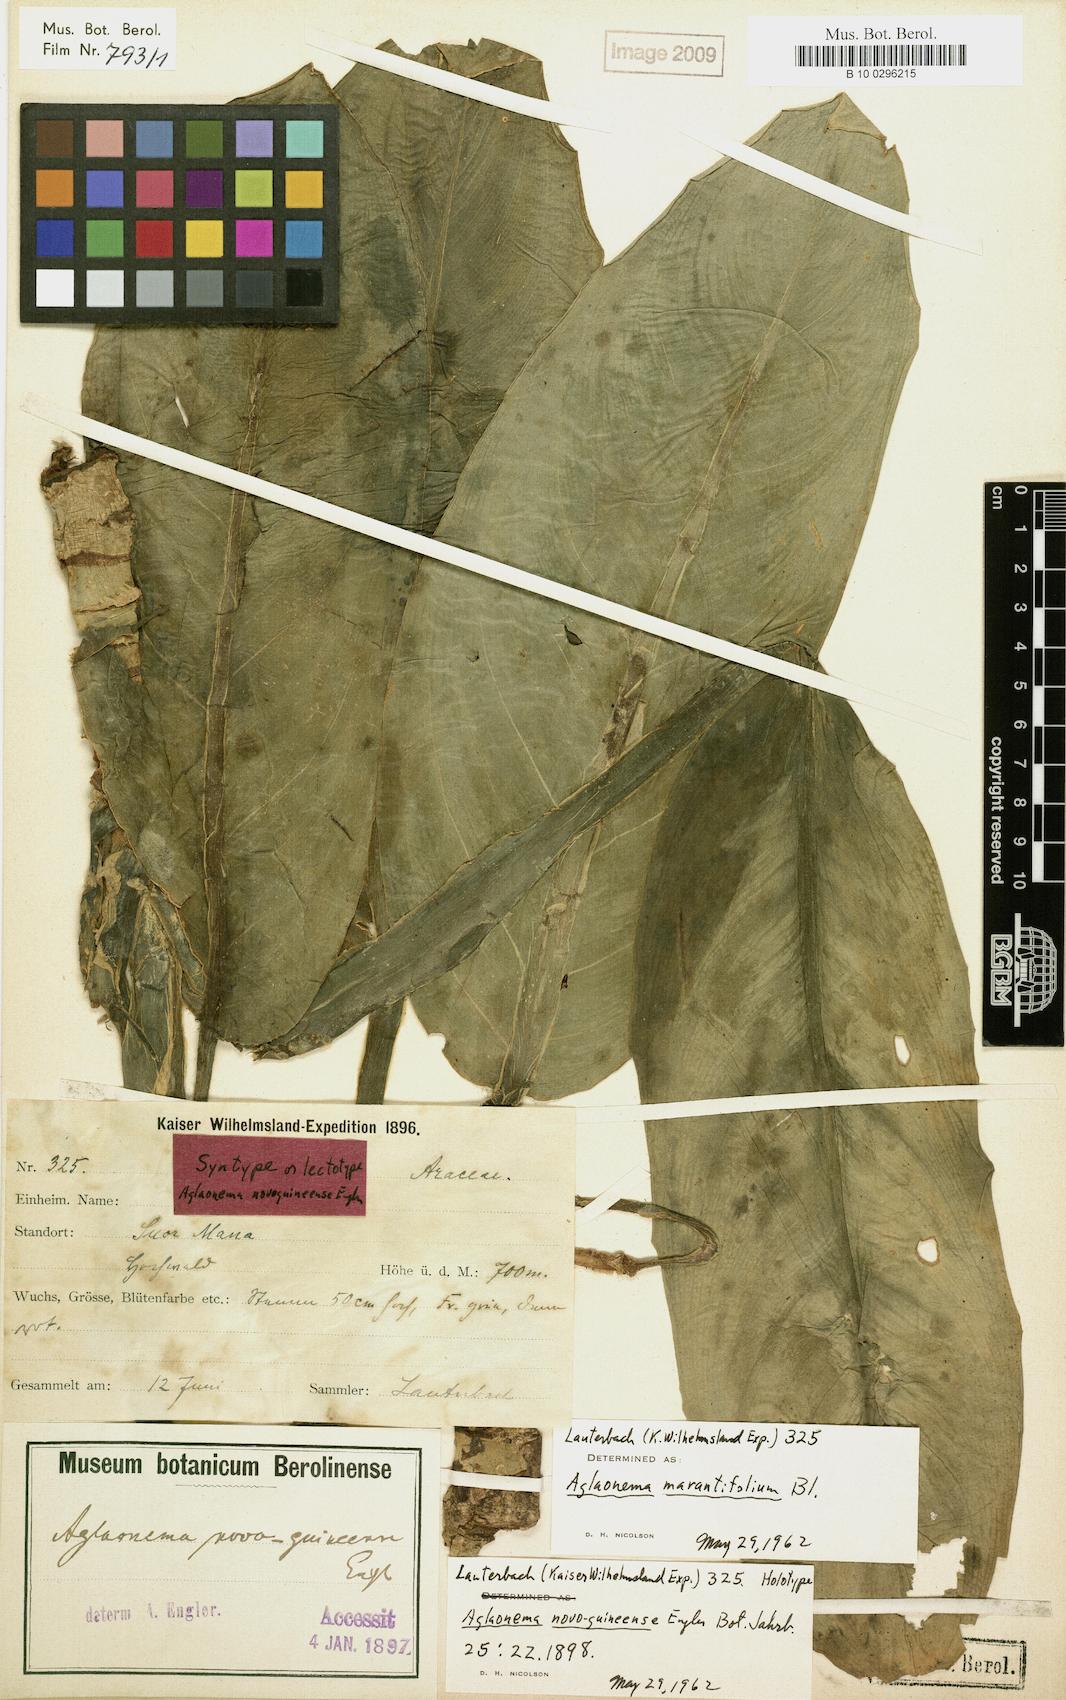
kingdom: Plantae
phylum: Tracheophyta
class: Liliopsida
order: Alismatales
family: Araceae
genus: Aglaonema
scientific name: Aglaonema marantifolium
